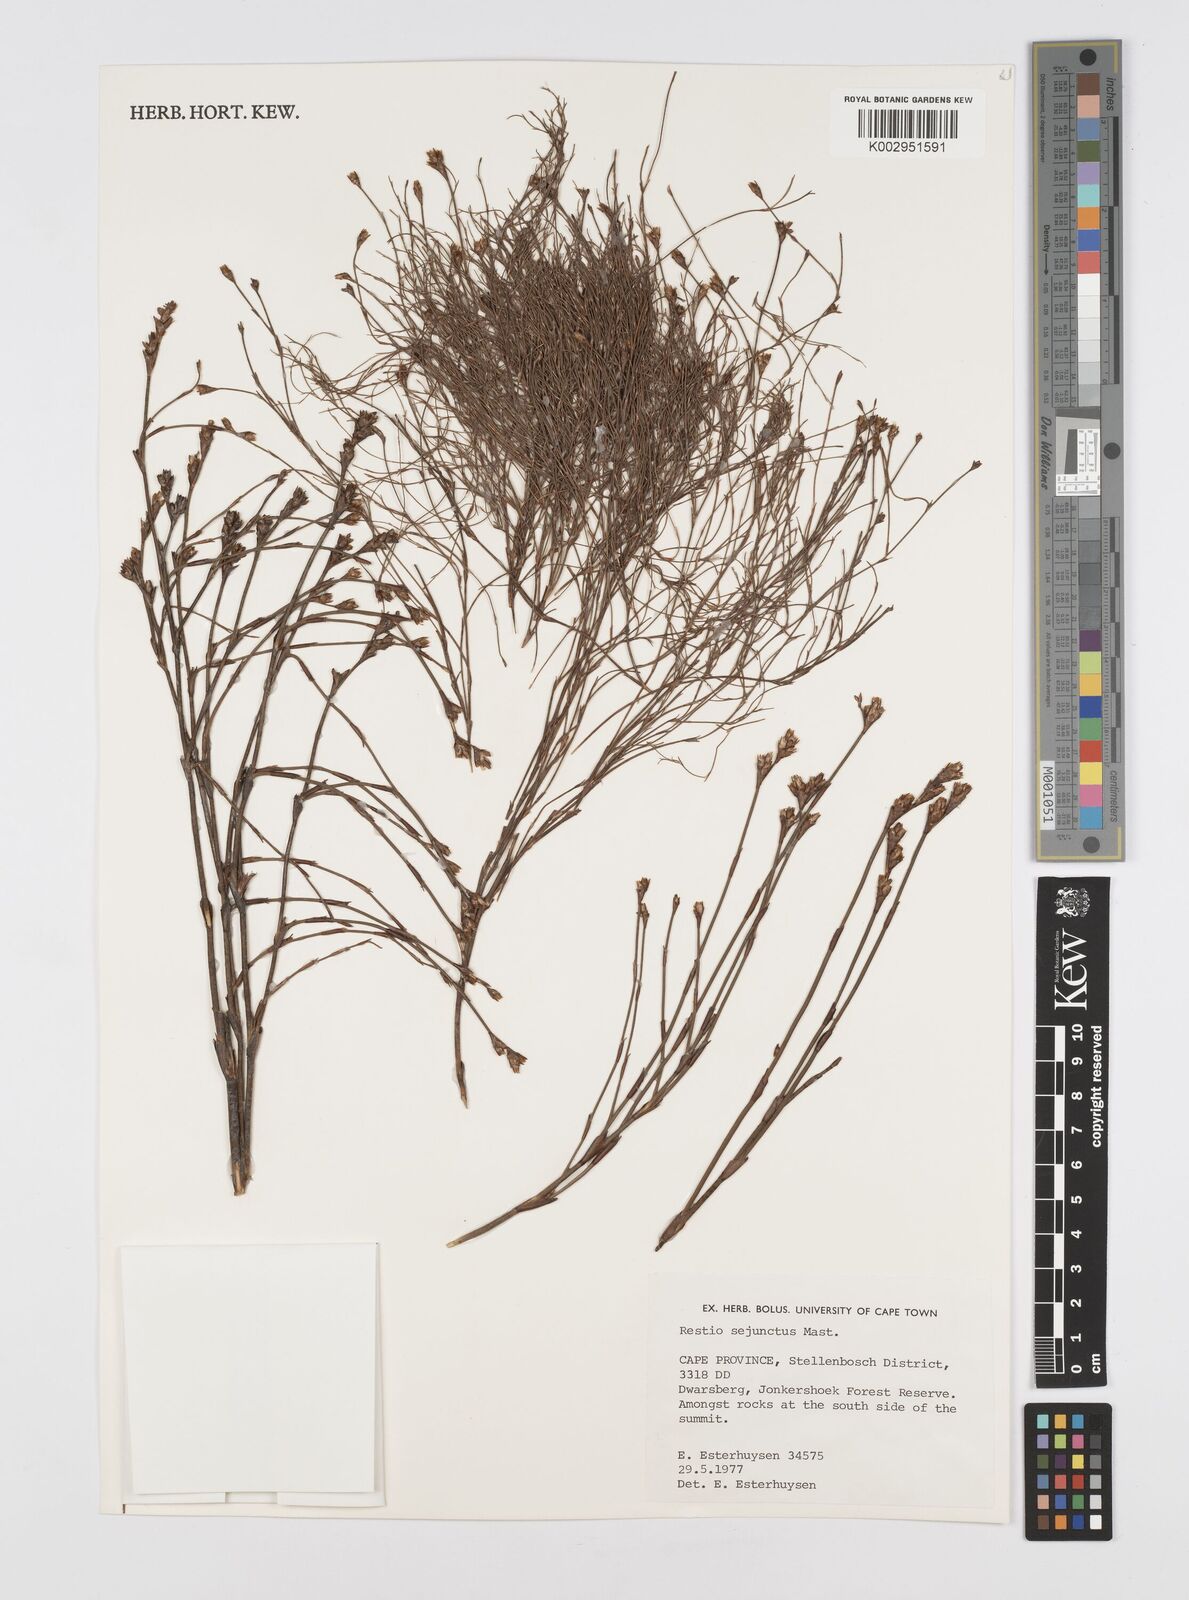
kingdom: Plantae
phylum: Tracheophyta
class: Liliopsida
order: Poales
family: Restionaceae
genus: Restio
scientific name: Restio sejunctus
